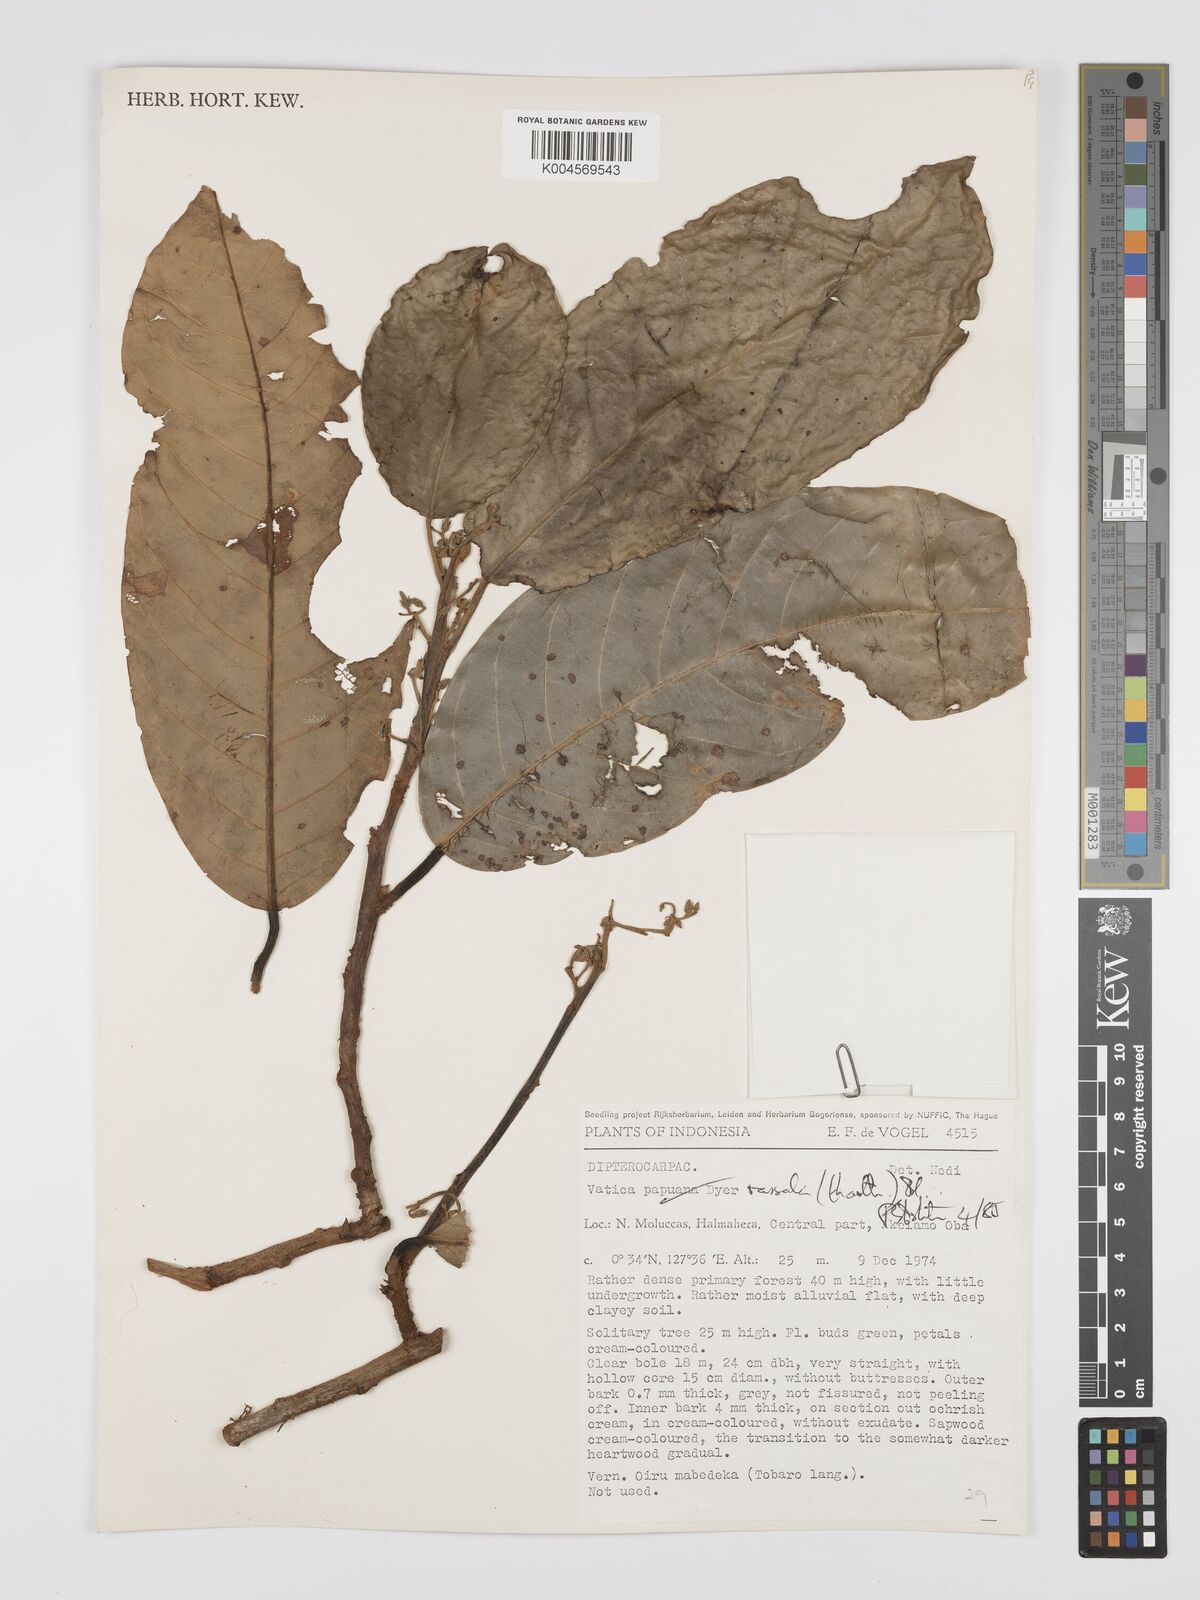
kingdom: Plantae
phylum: Tracheophyta
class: Magnoliopsida
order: Malvales
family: Dipterocarpaceae
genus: Vatica
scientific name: Vatica rassak
